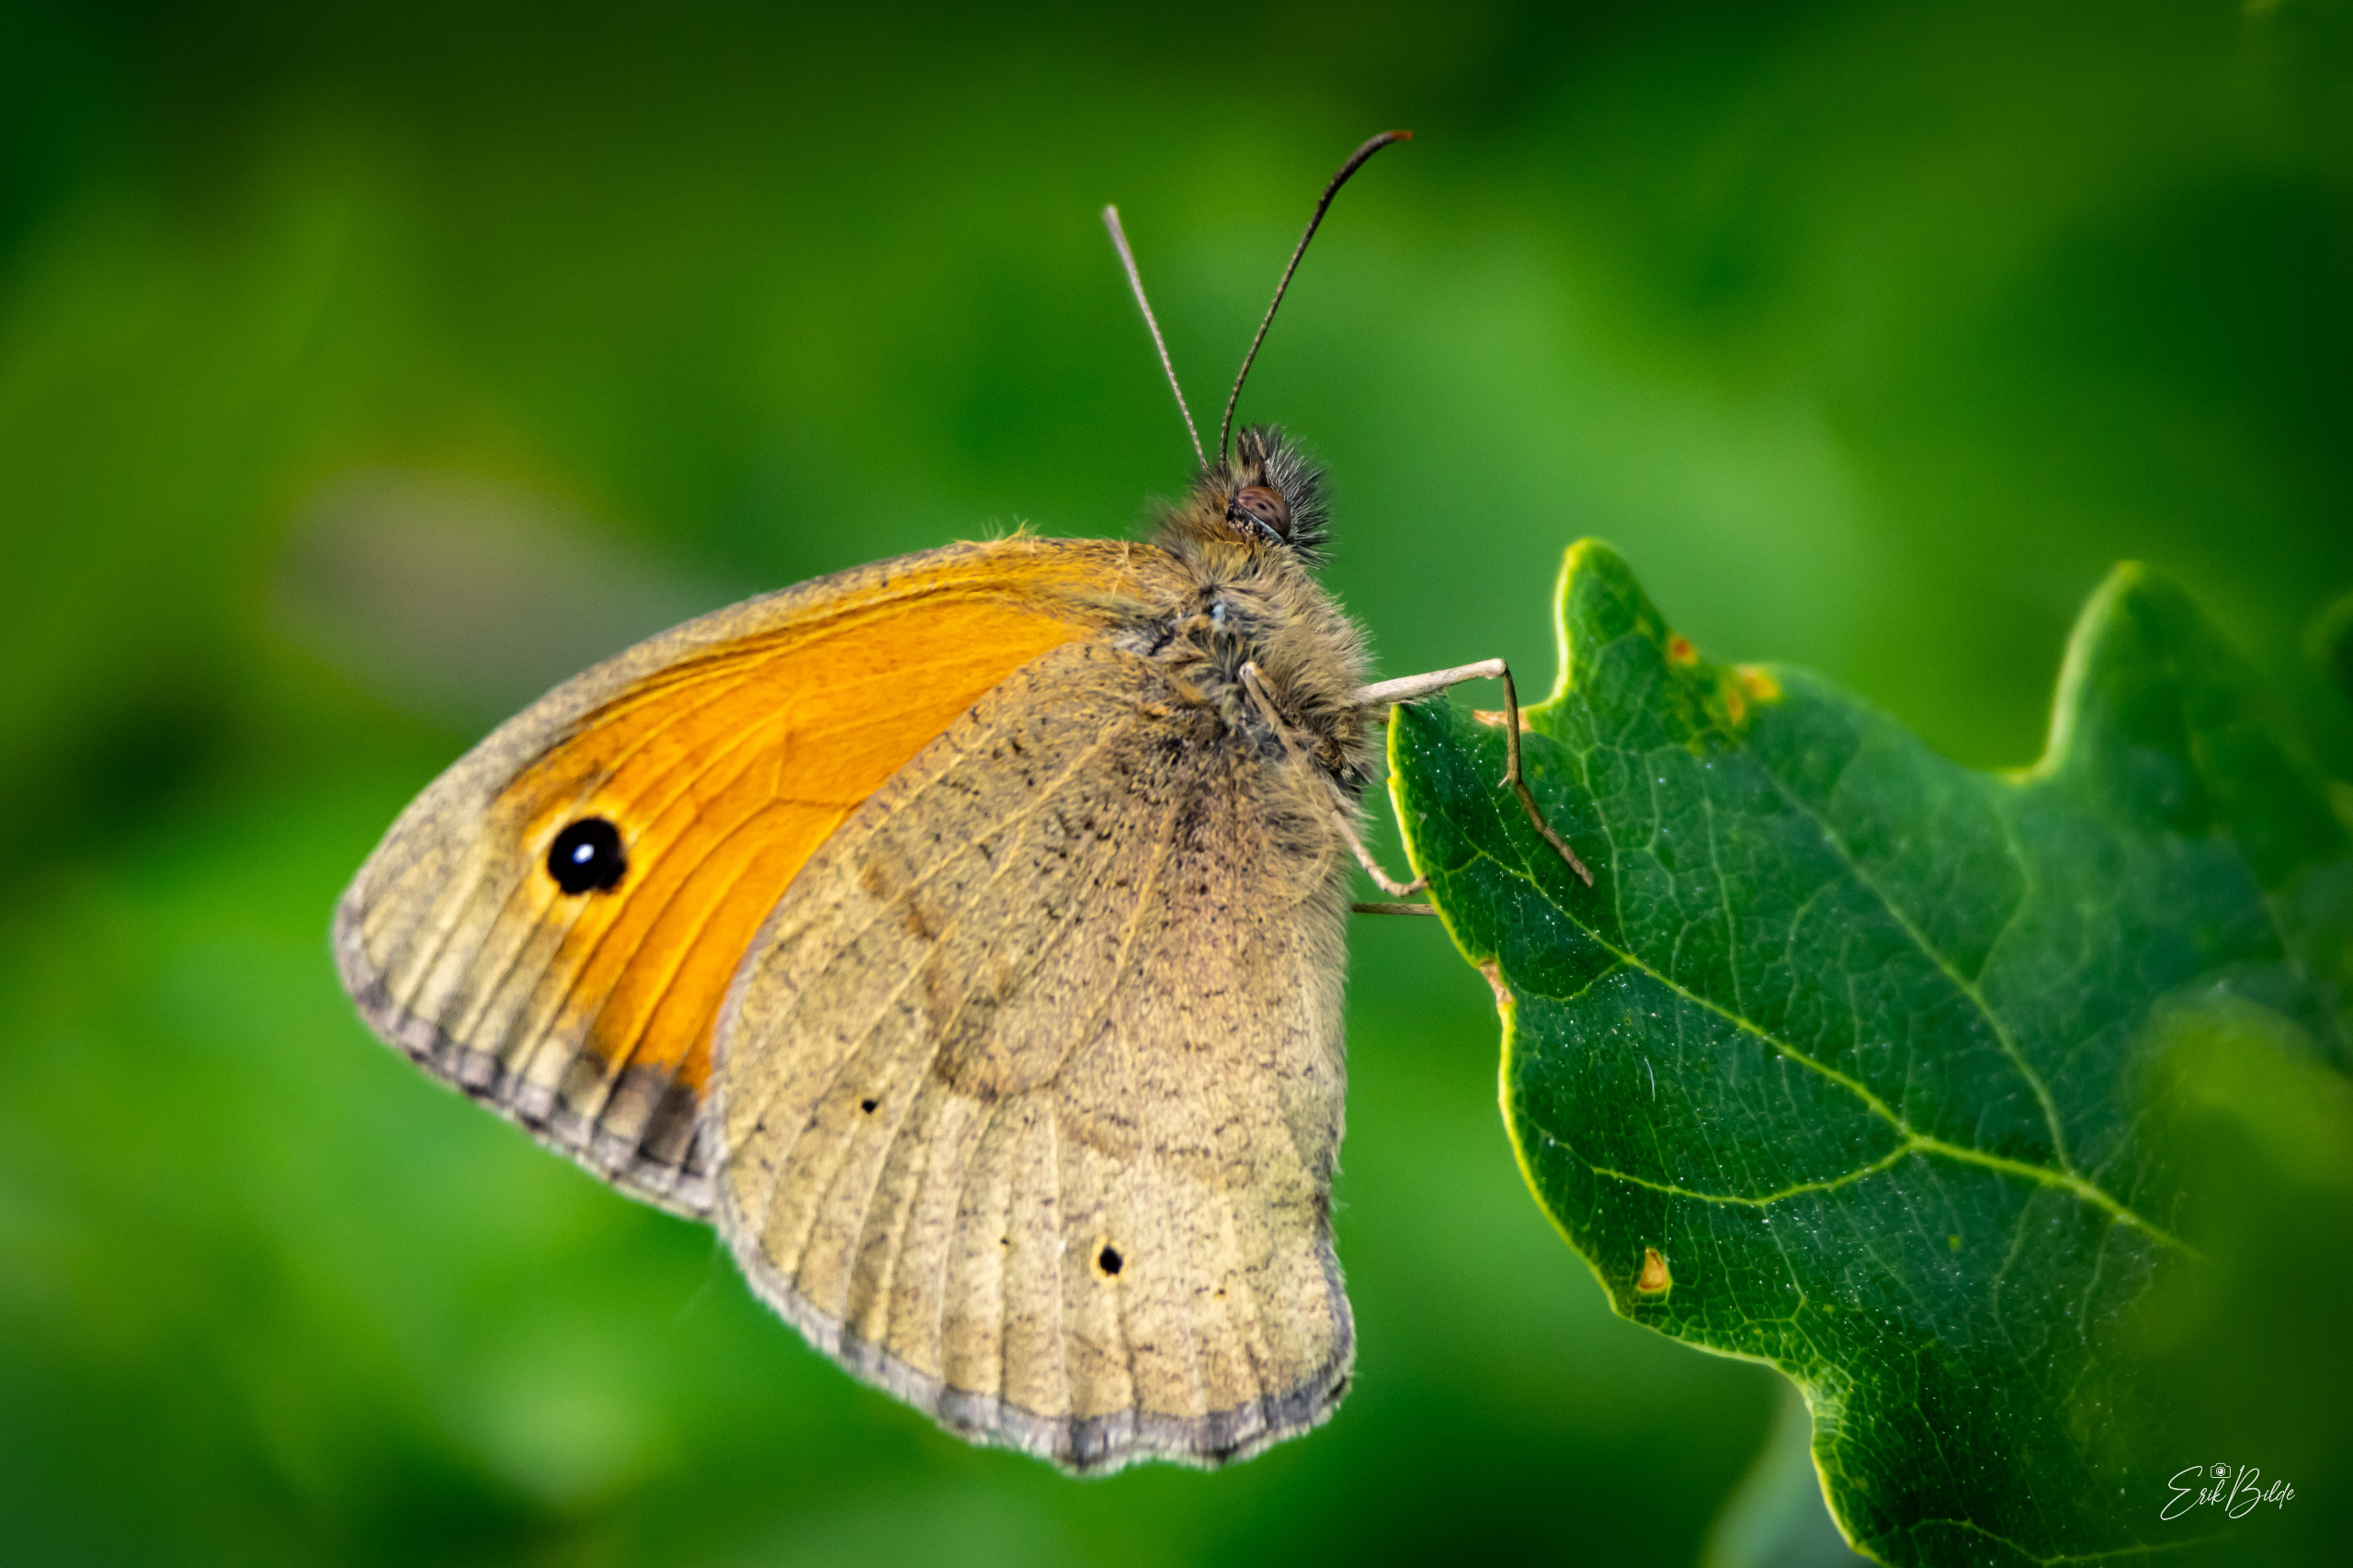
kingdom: Animalia
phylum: Arthropoda
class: Insecta
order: Lepidoptera
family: Nymphalidae
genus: Maniola
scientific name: Maniola jurtina
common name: Græsrandøje
